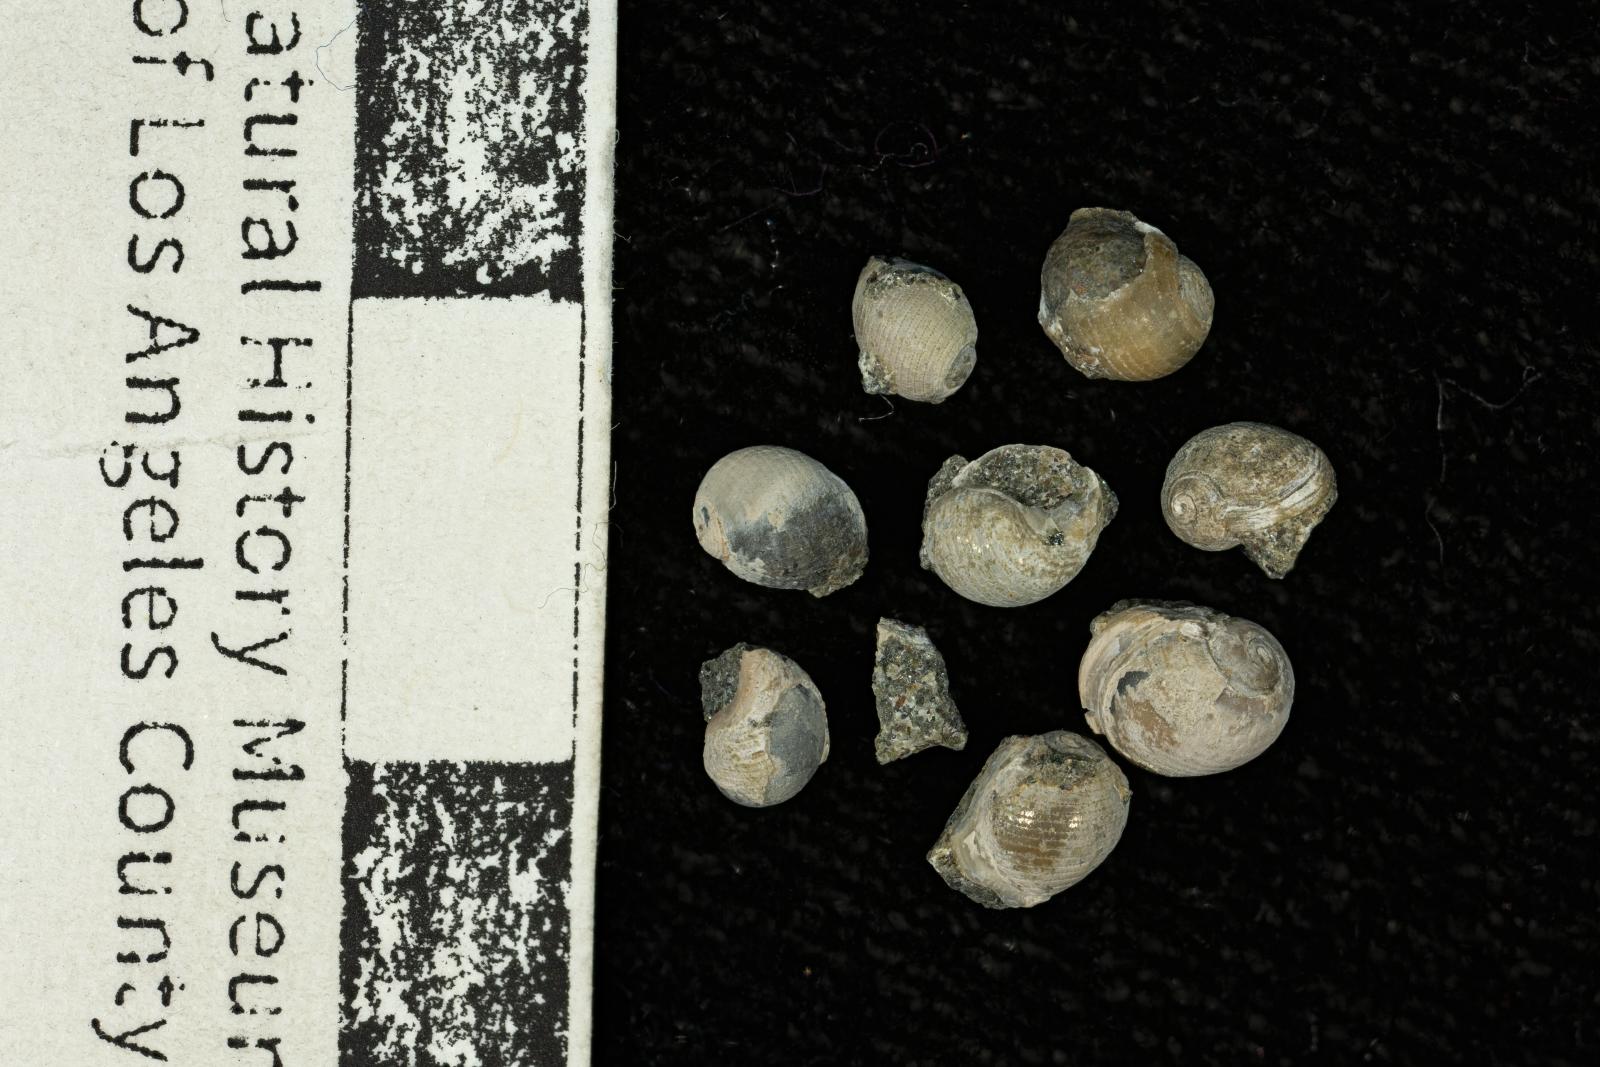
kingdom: Animalia
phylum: Mollusca
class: Gastropoda
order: Cephalaspidea
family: Ringiculidae
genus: Biplica
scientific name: Biplica isoplicata
